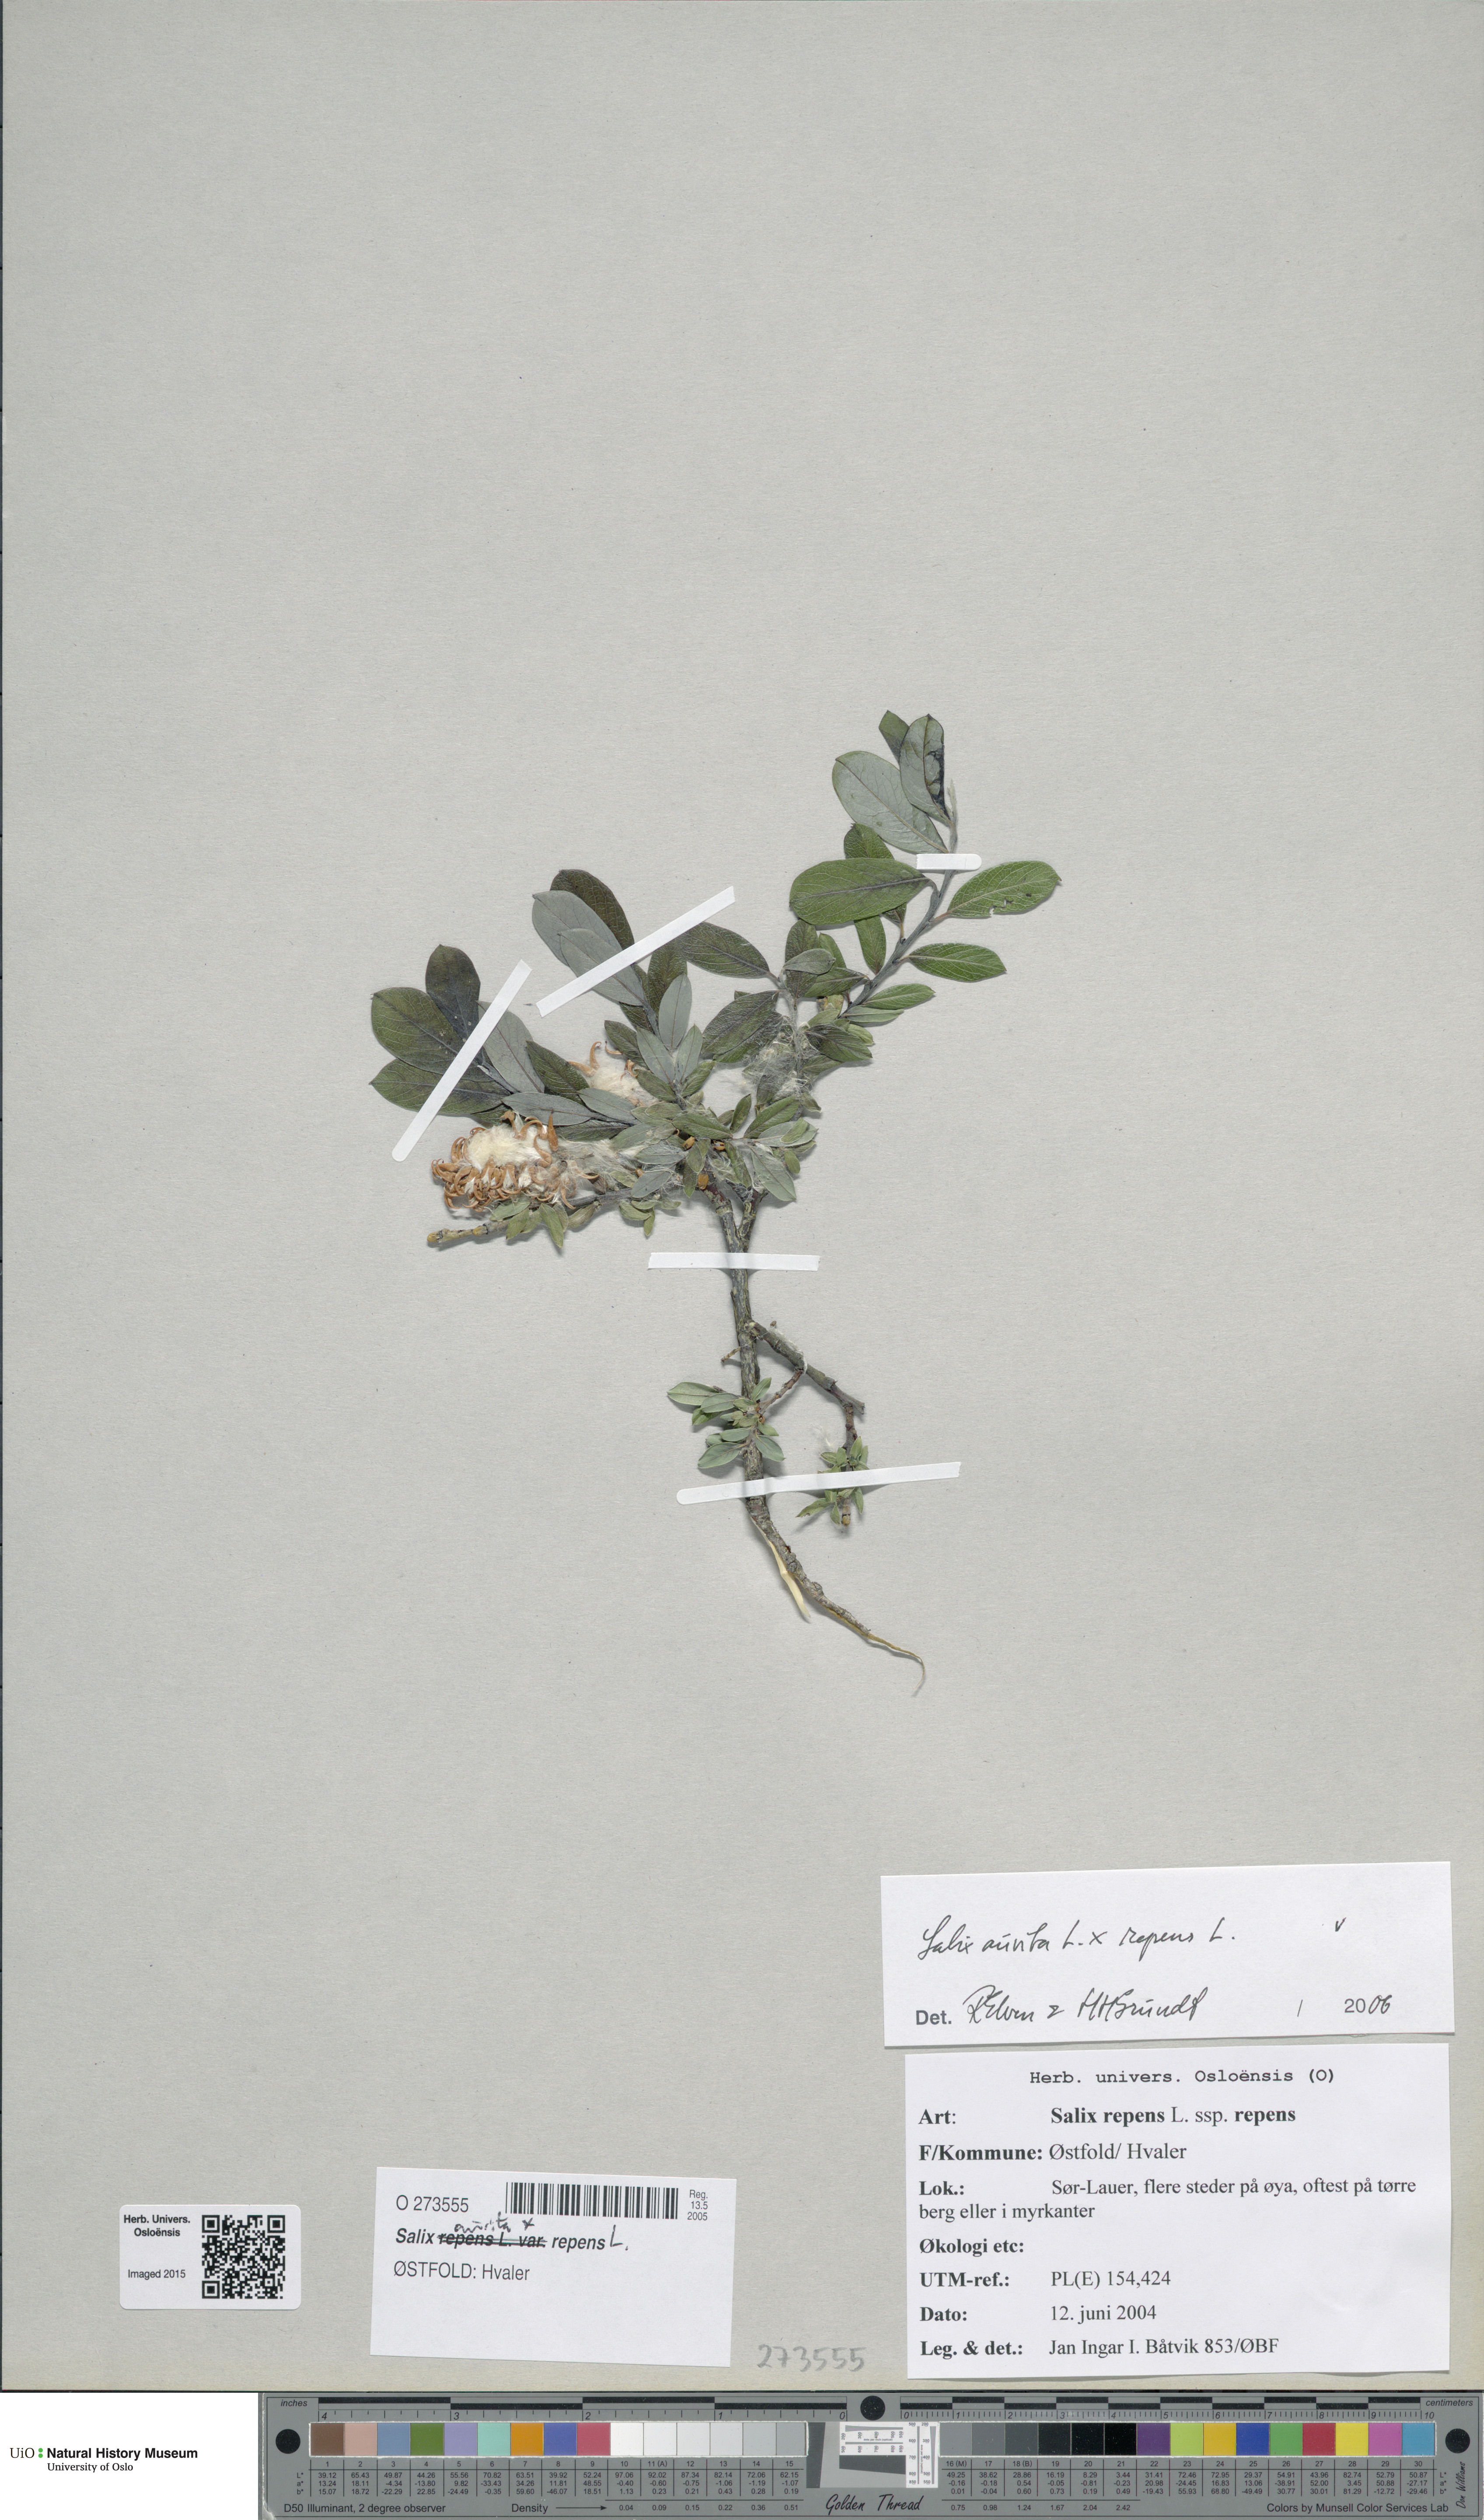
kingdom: Plantae
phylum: Tracheophyta
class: Magnoliopsida
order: Malpighiales
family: Salicaceae
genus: Salix
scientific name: Salix
